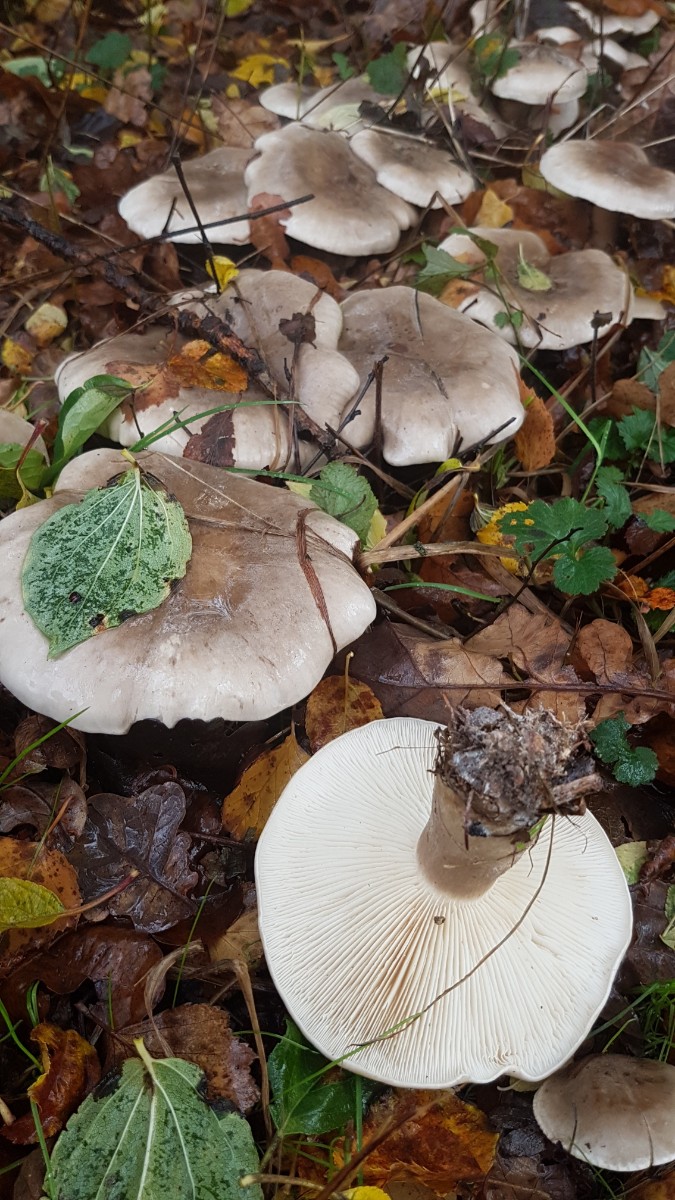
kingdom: Fungi
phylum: Basidiomycota
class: Agaricomycetes
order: Agaricales
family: Tricholomataceae
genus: Clitocybe
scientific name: Clitocybe nebularis
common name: tåge-tragthat
